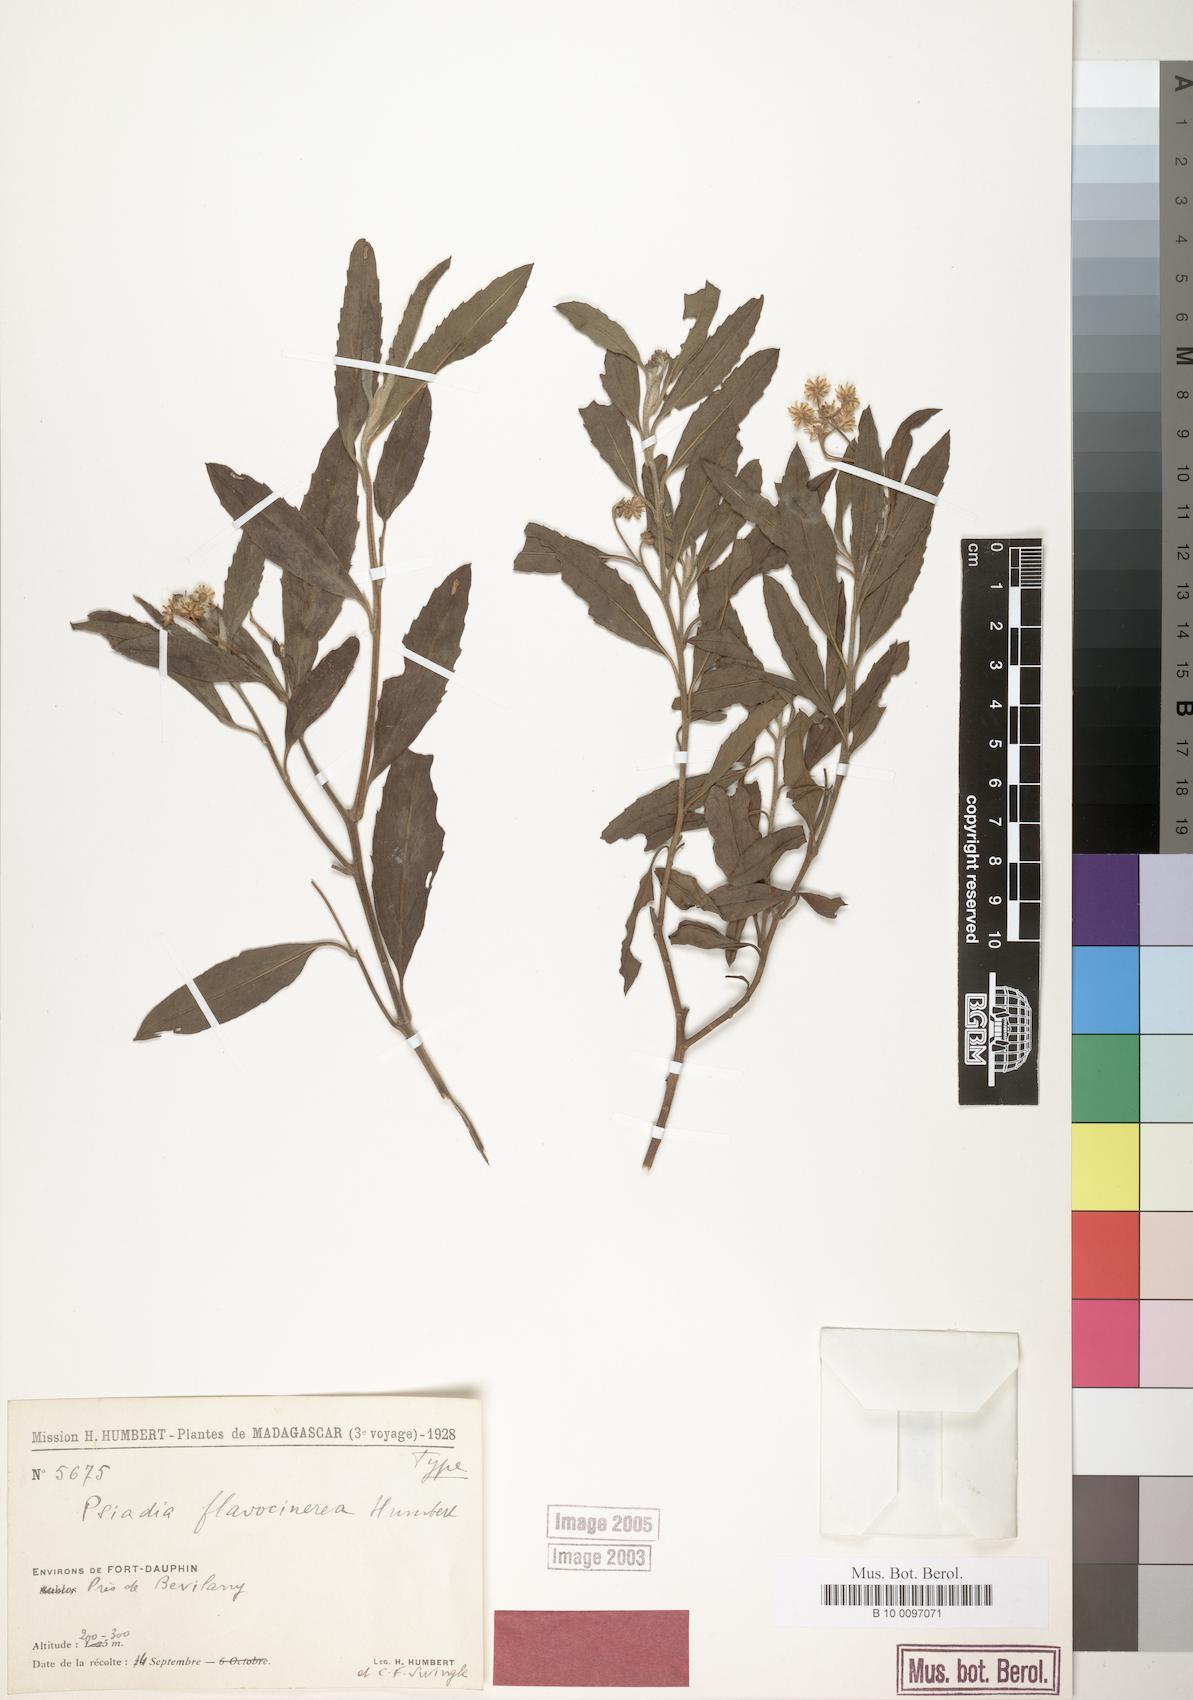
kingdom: Plantae
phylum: Tracheophyta
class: Magnoliopsida
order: Asterales
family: Asteraceae
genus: Psiadia
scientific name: Psiadia flavocinerea
